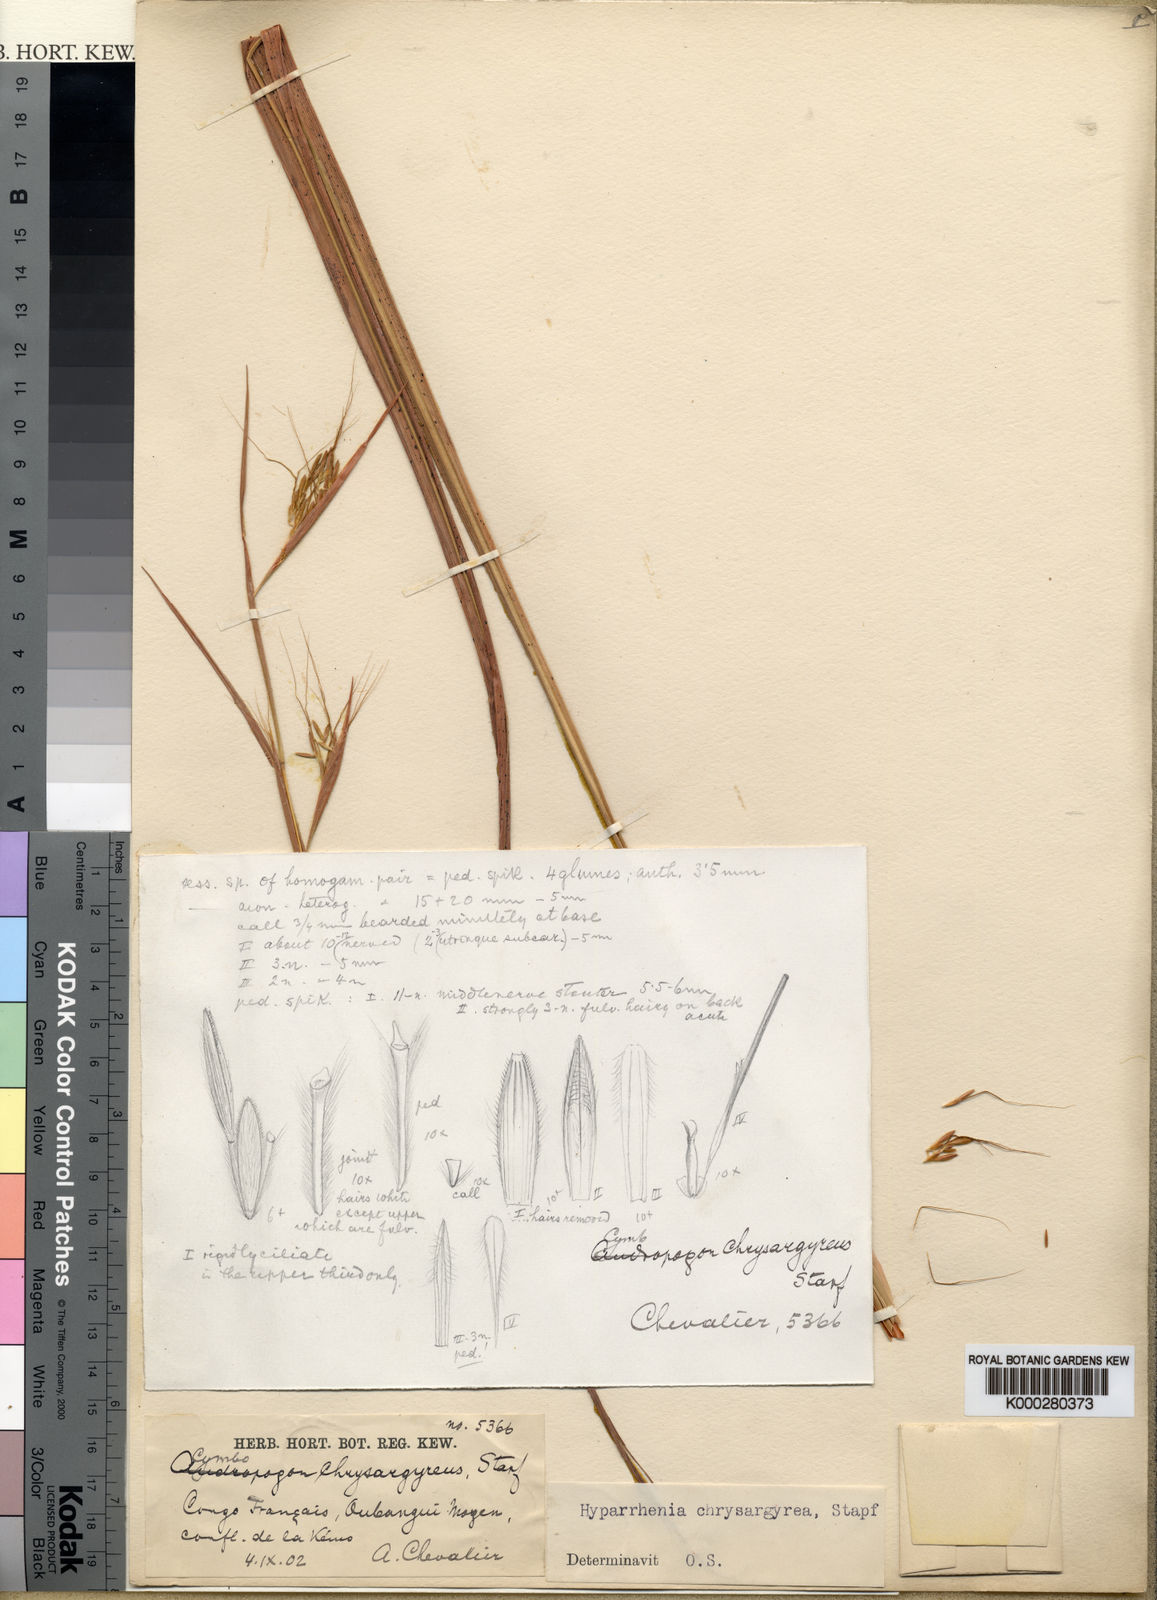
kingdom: Plantae
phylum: Tracheophyta
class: Liliopsida
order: Poales
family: Poaceae
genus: Hyparrhenia
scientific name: Hyparrhenia nyassae
